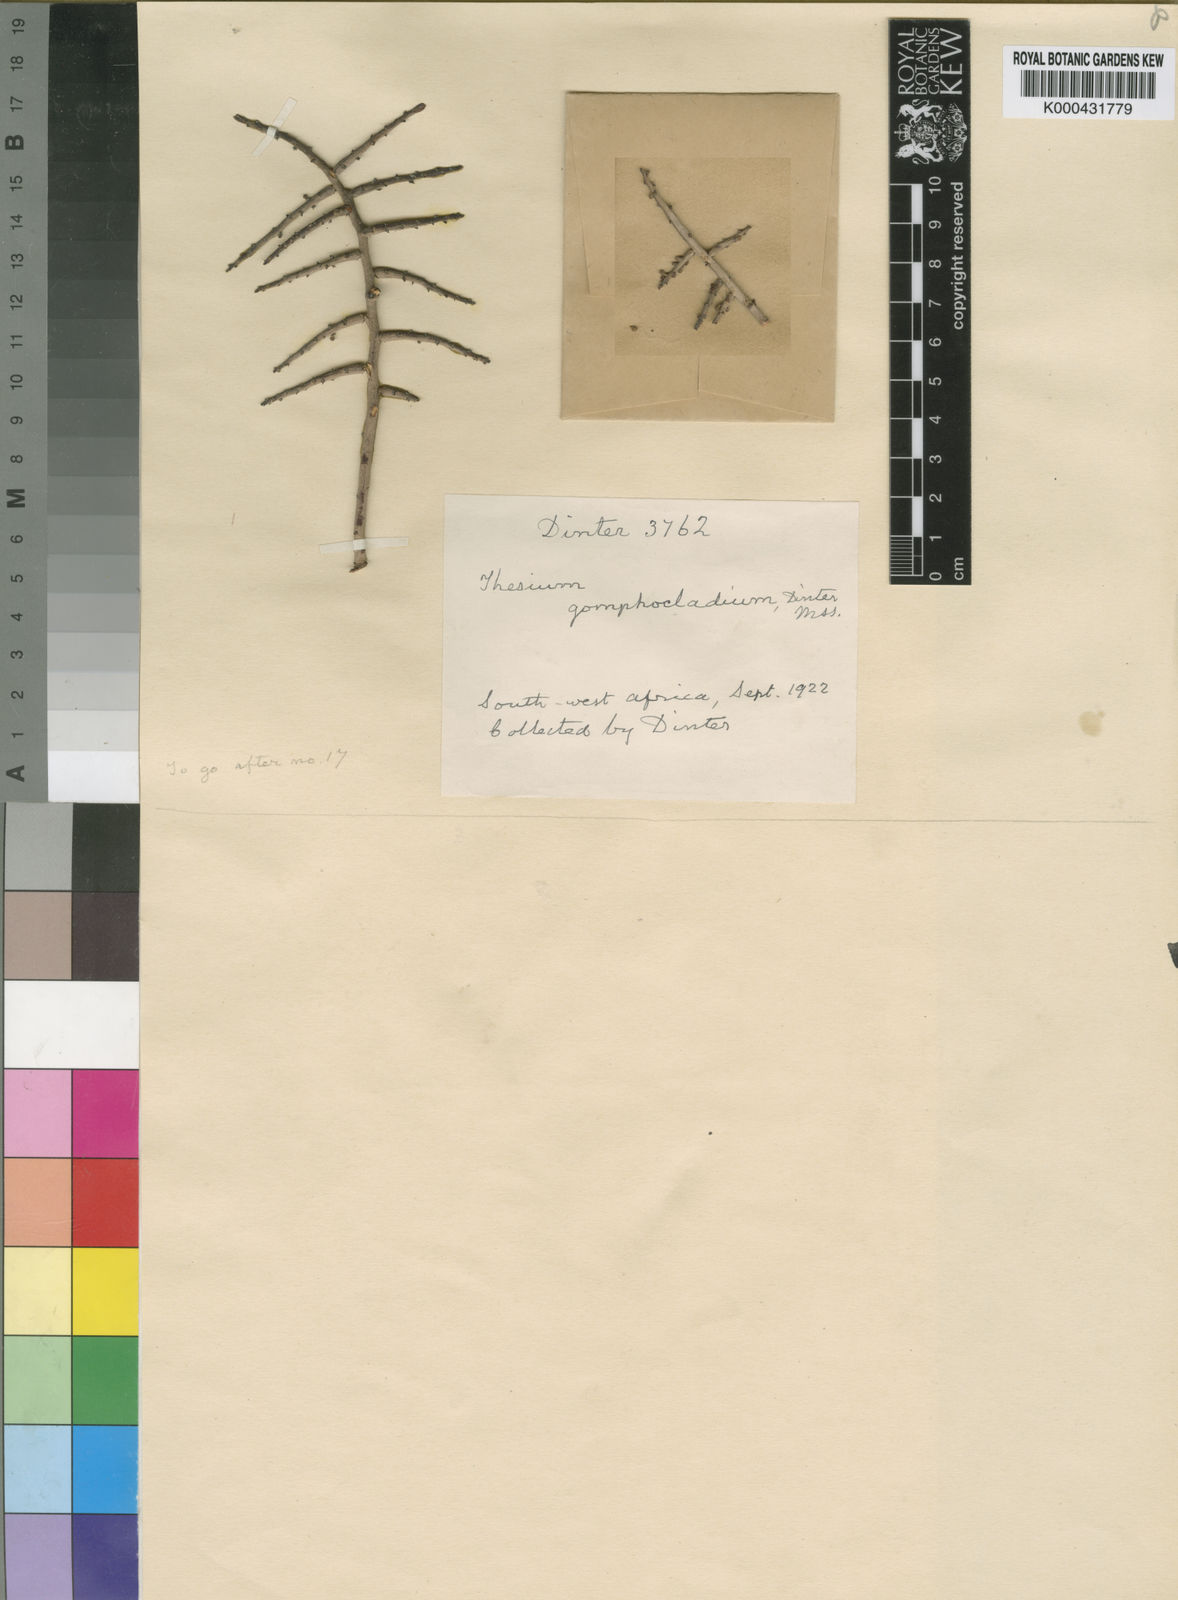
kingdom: Plantae
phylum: Tracheophyta
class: Magnoliopsida
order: Santalales
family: Thesiaceae
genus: Thesium
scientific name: Thesium
